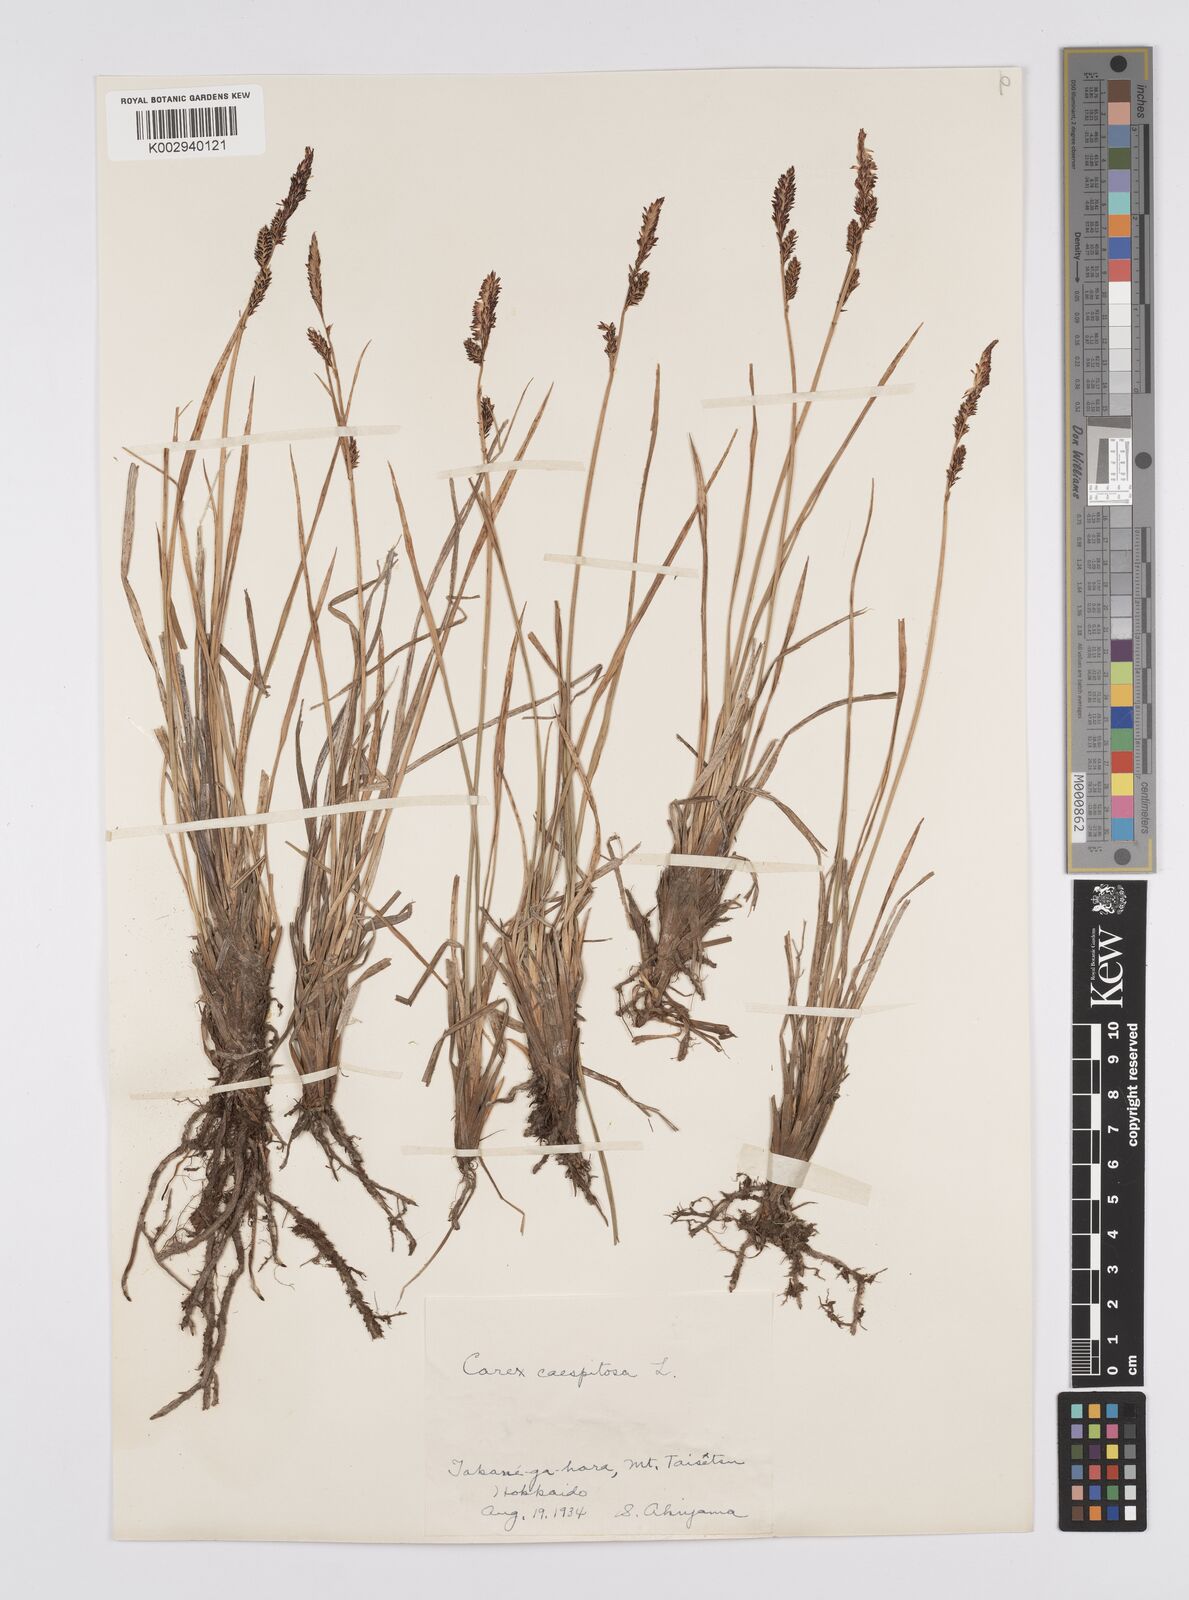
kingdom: Plantae
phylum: Tracheophyta
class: Liliopsida
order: Poales
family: Cyperaceae
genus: Carex
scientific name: Carex cespitosa
